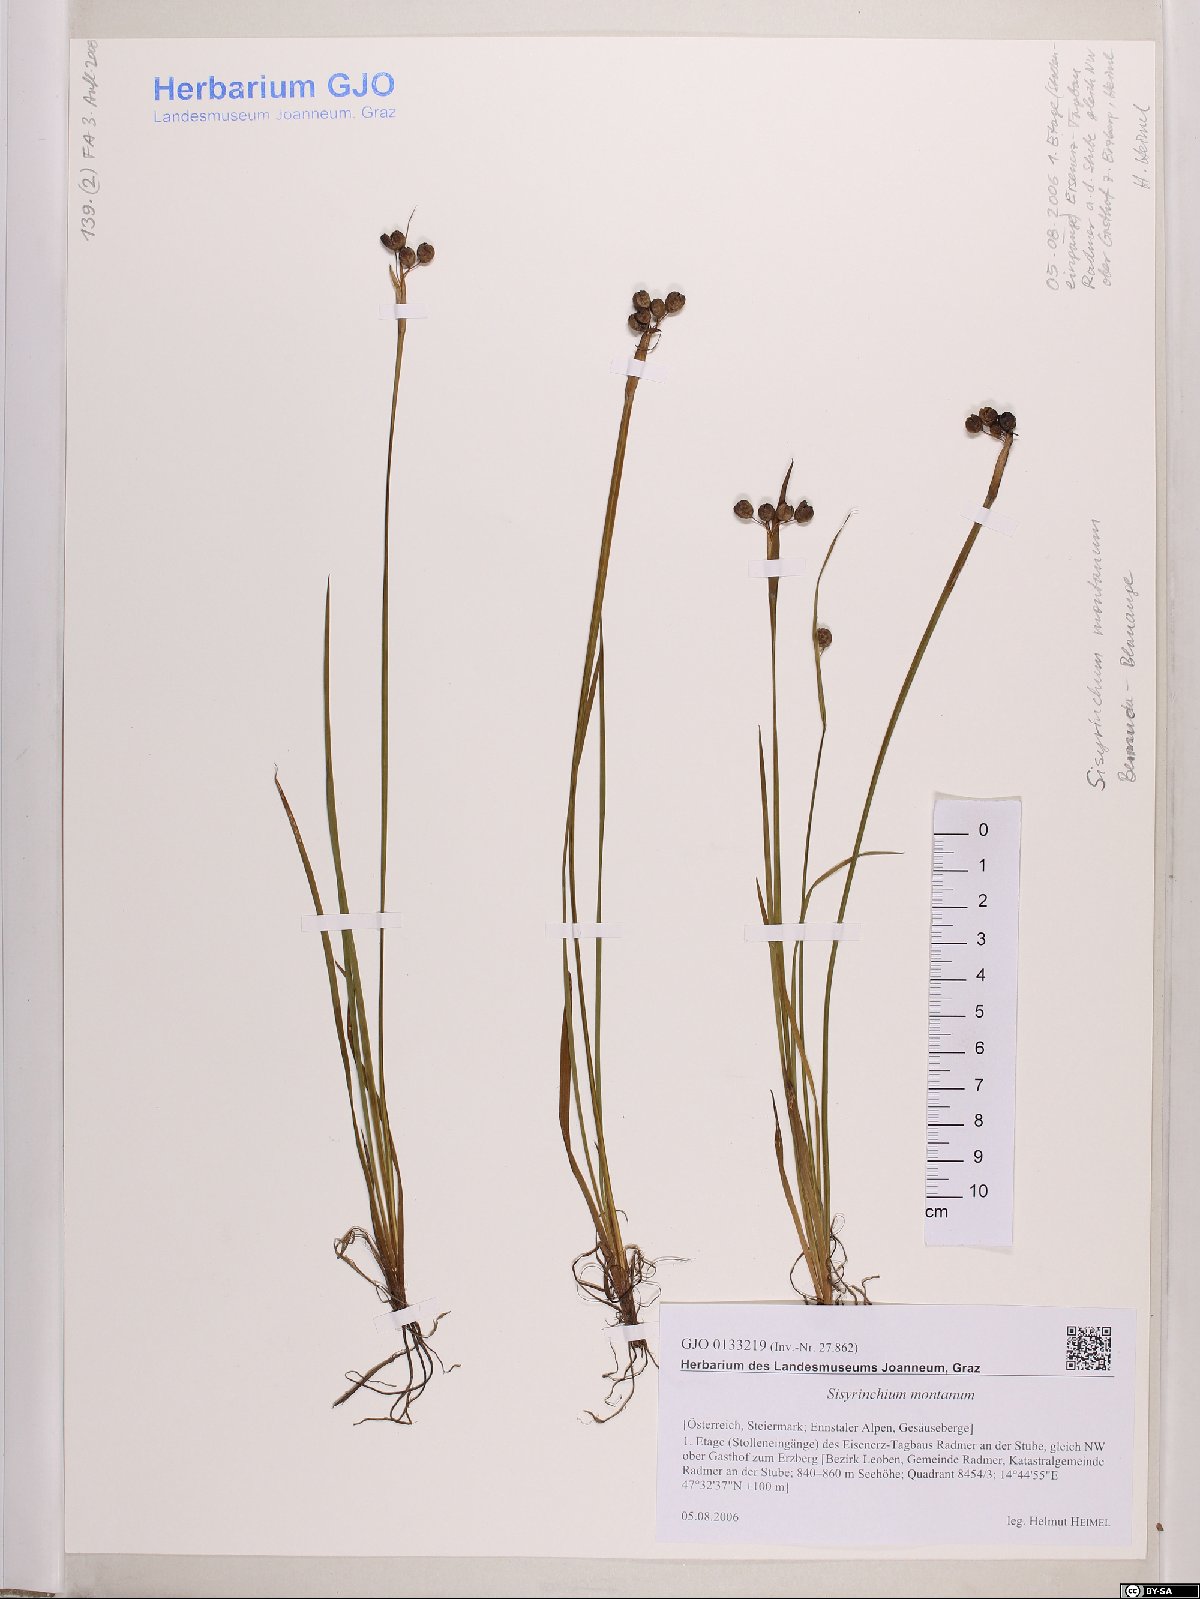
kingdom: Plantae
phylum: Tracheophyta
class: Liliopsida
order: Asparagales
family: Iridaceae
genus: Sisyrinchium
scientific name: Sisyrinchium montanum
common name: American blue-eyed-grass
